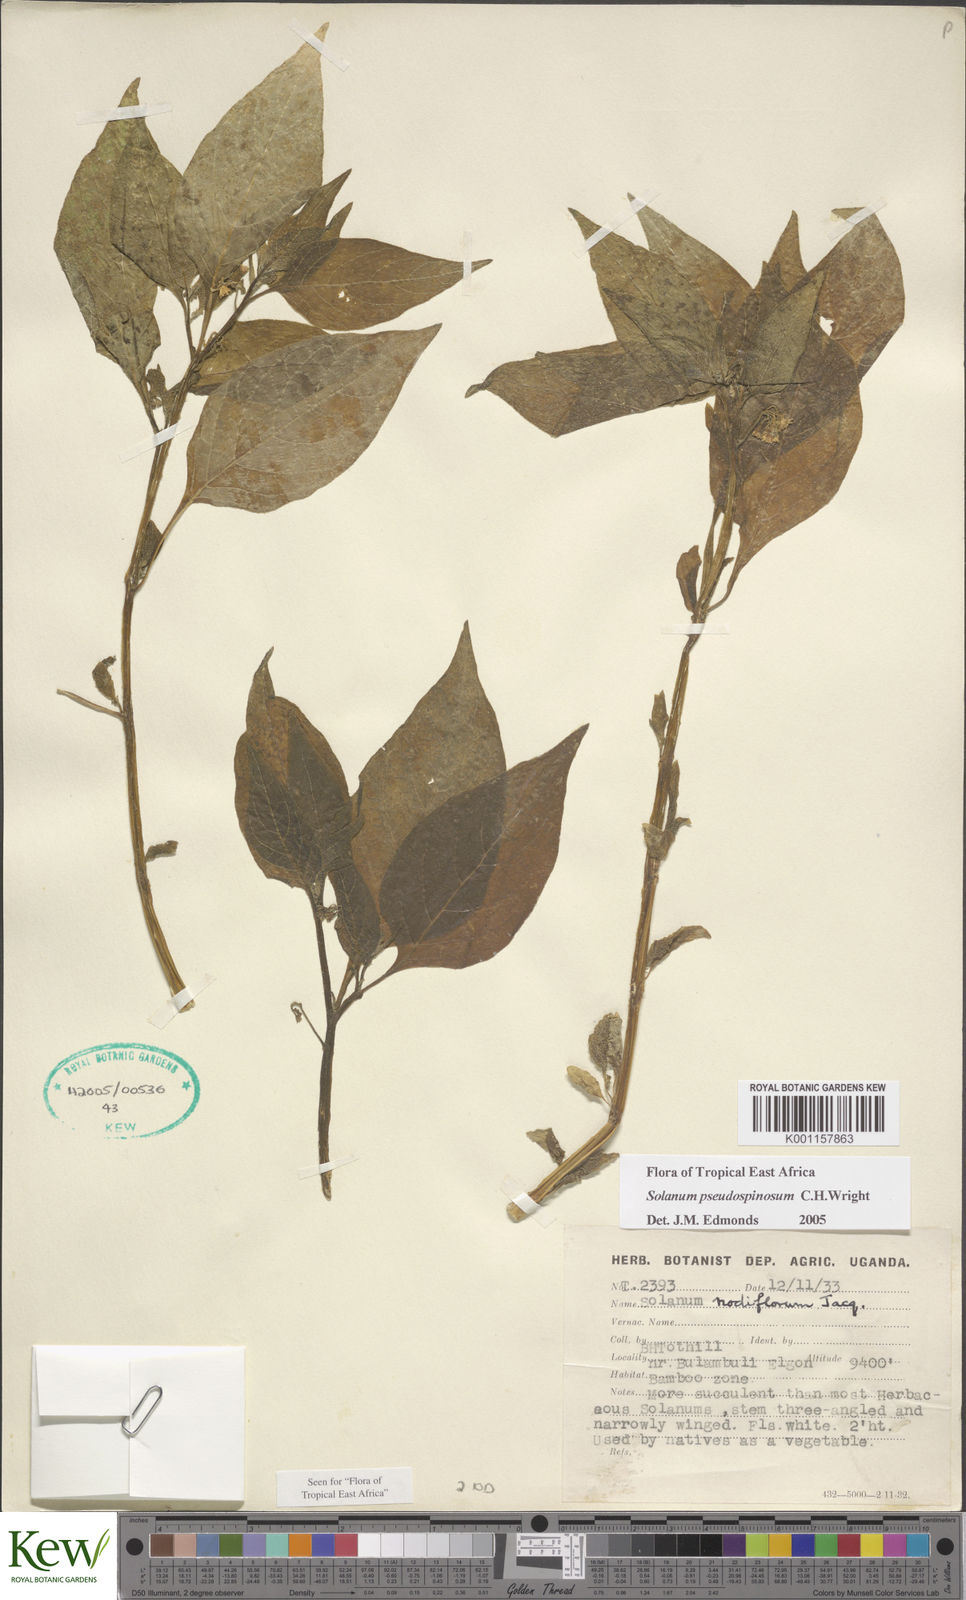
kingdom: Plantae
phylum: Tracheophyta
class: Magnoliopsida
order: Solanales
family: Solanaceae
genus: Solanum
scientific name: Solanum pseudospinosum
